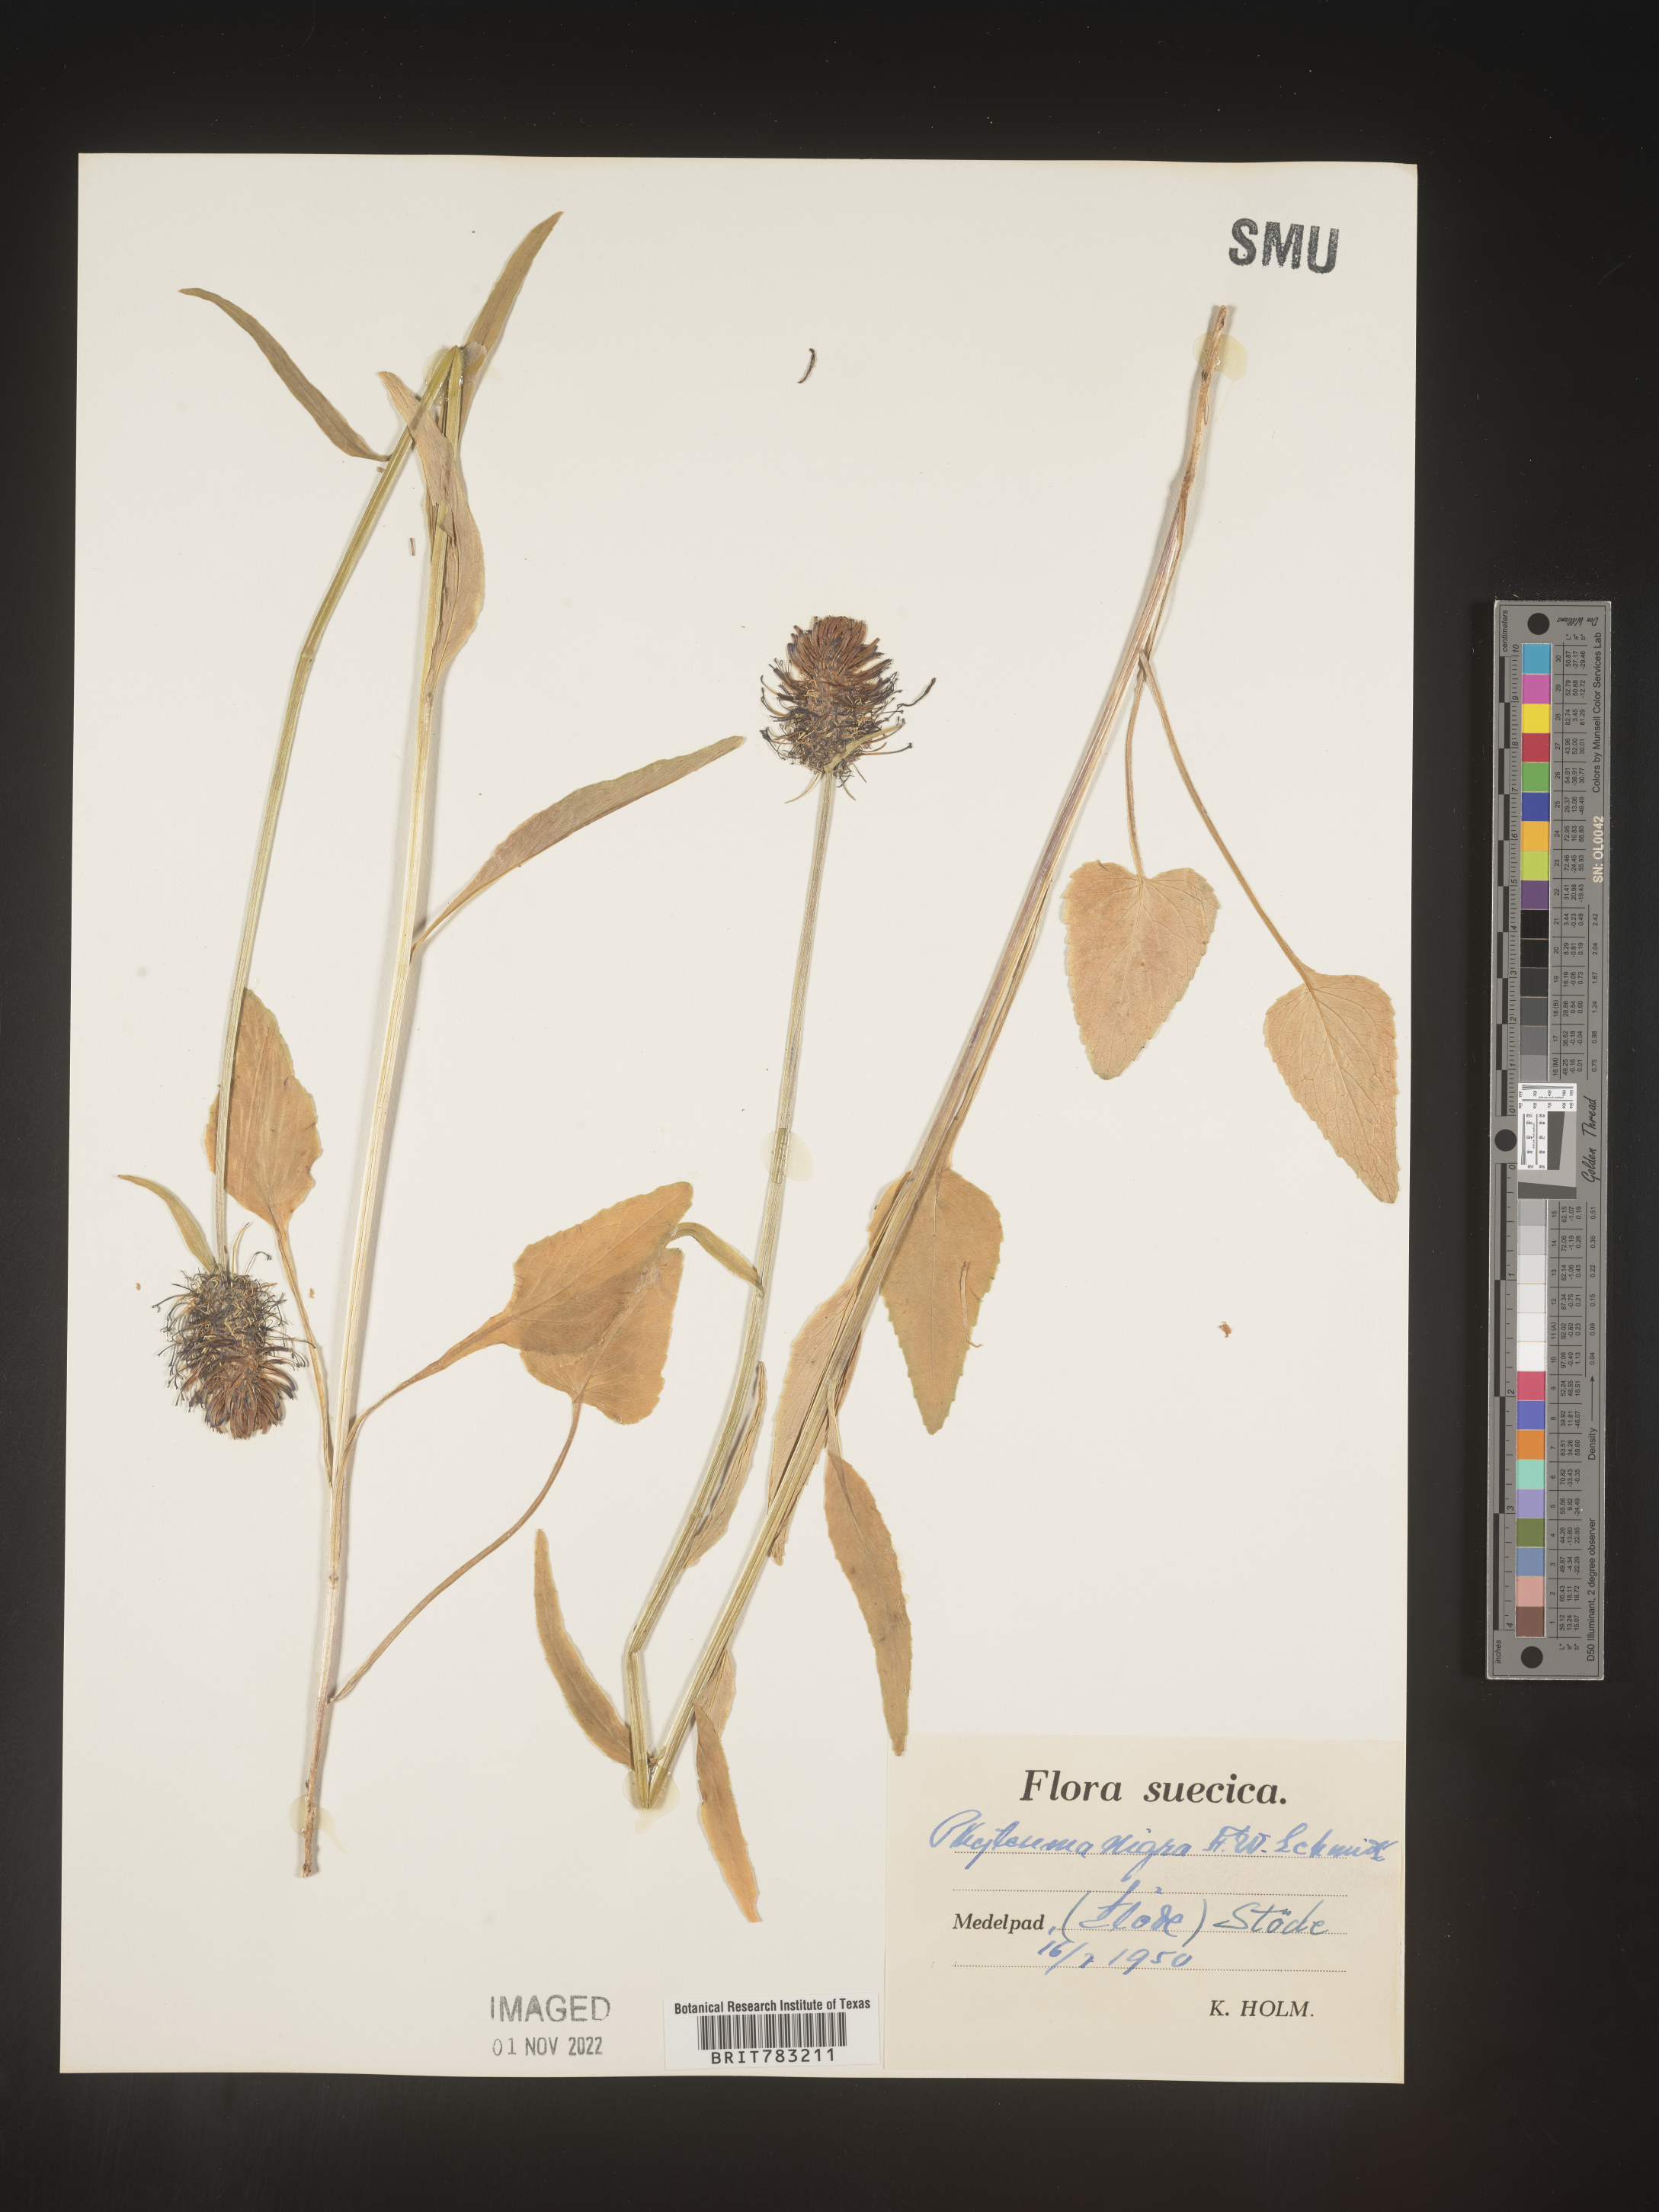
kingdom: Plantae
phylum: Tracheophyta
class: Magnoliopsida
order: Asterales
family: Campanulaceae
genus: Phyteuma
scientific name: Phyteuma
